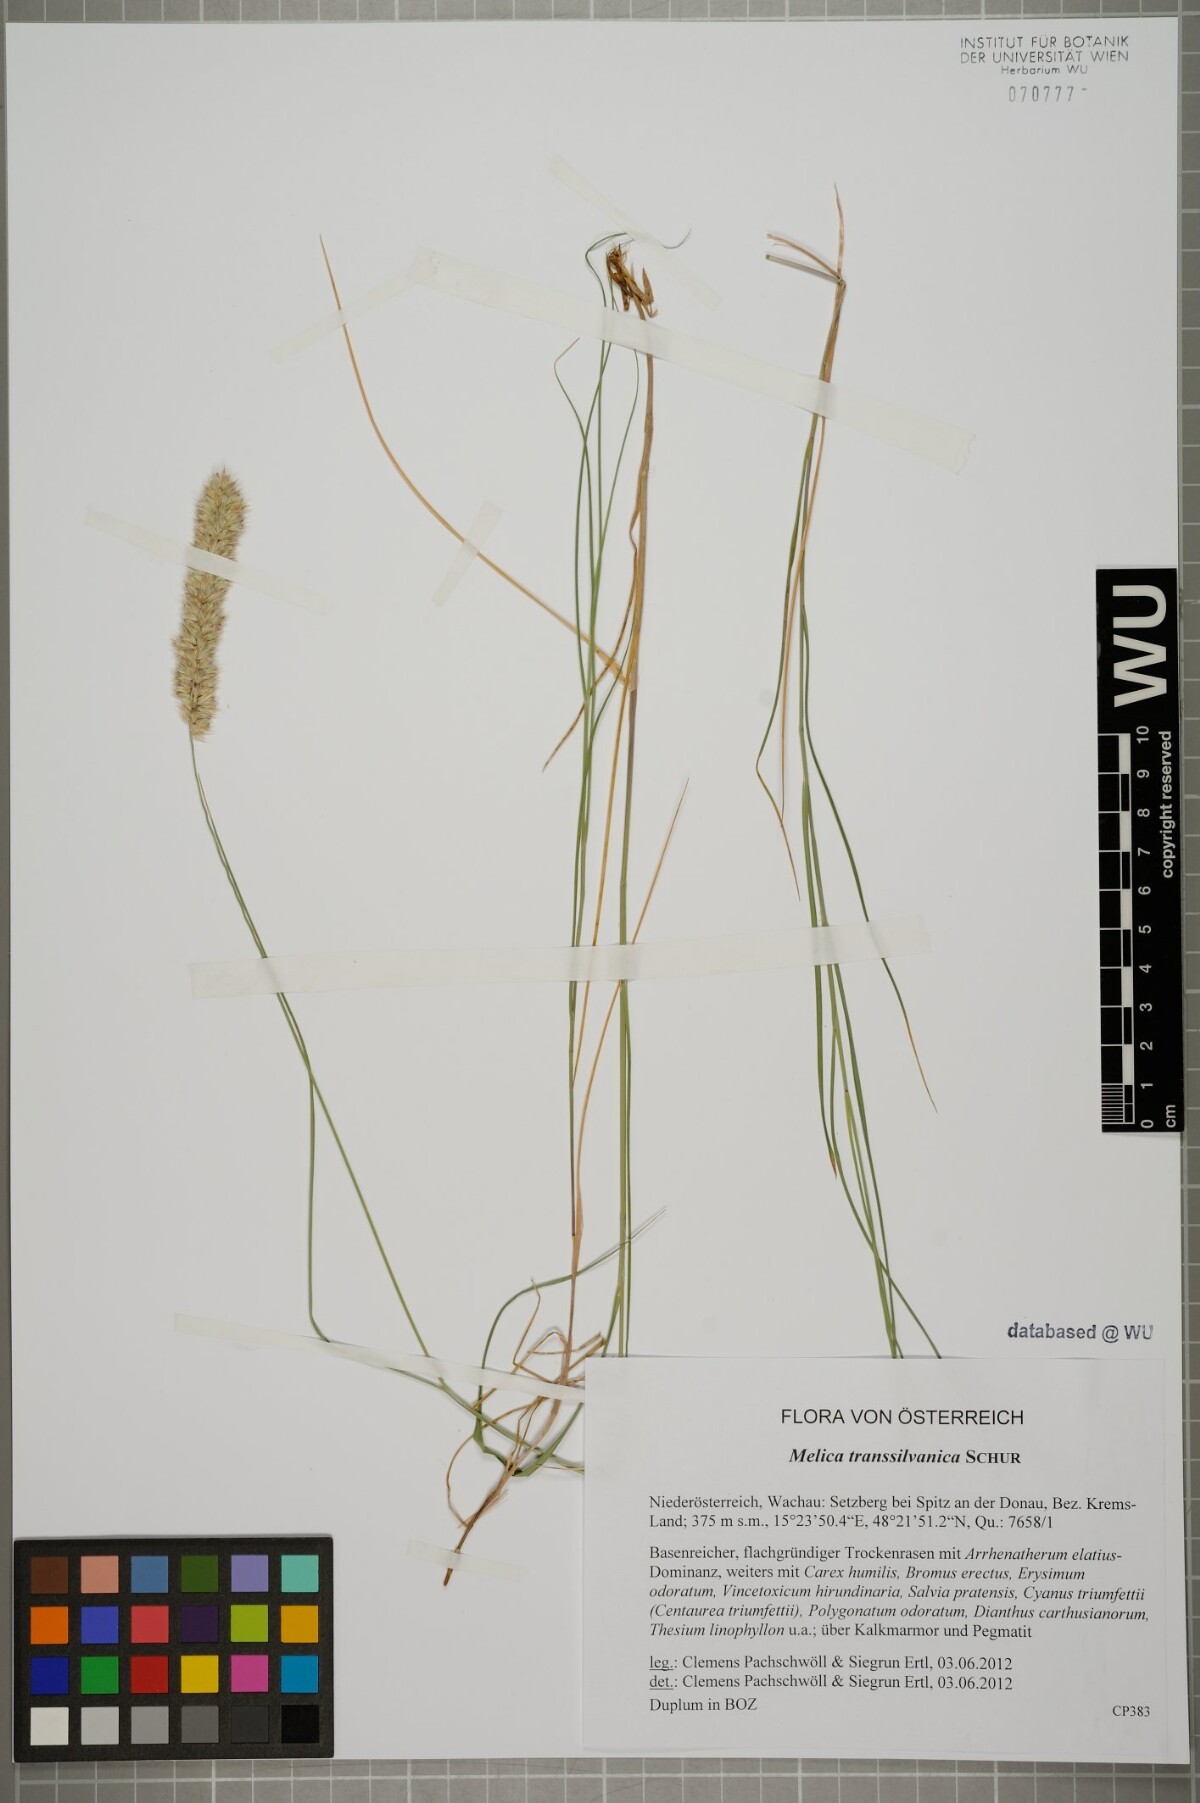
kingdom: Plantae
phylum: Tracheophyta
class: Liliopsida
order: Poales
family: Poaceae
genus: Melica
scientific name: Melica transsilvanica
